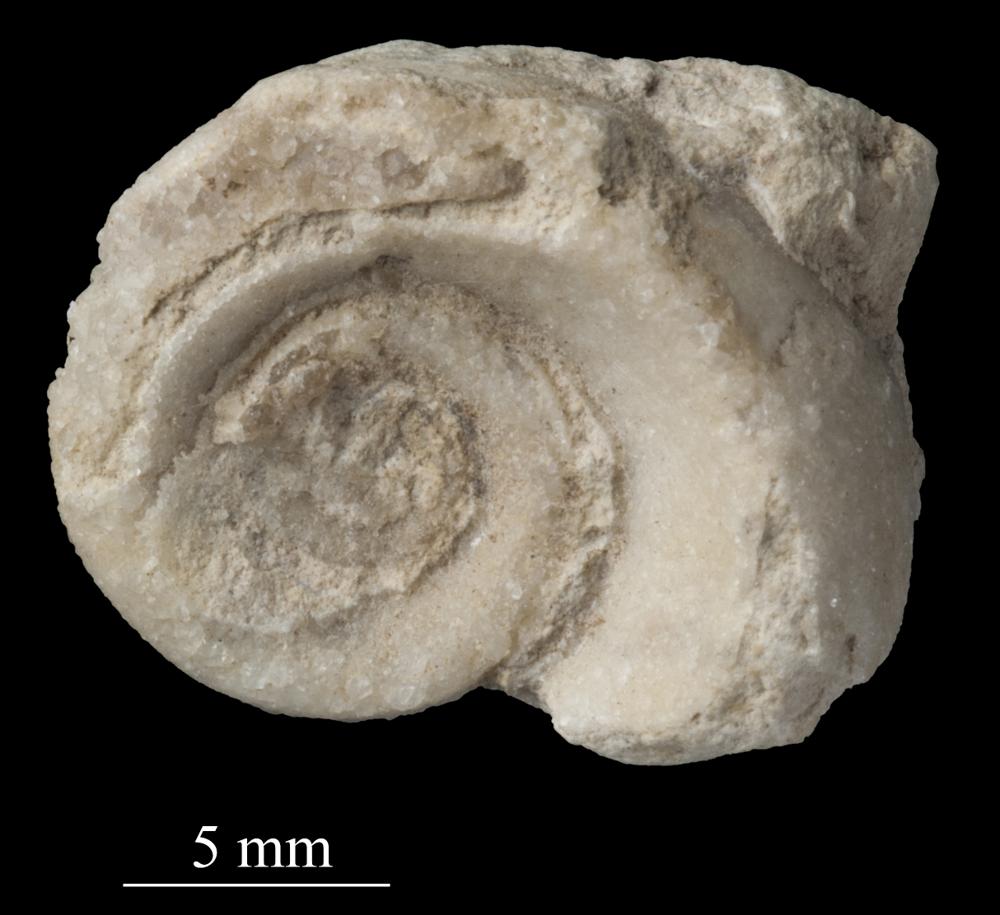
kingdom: Animalia
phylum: Mollusca
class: Gastropoda
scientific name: Gastropoda
